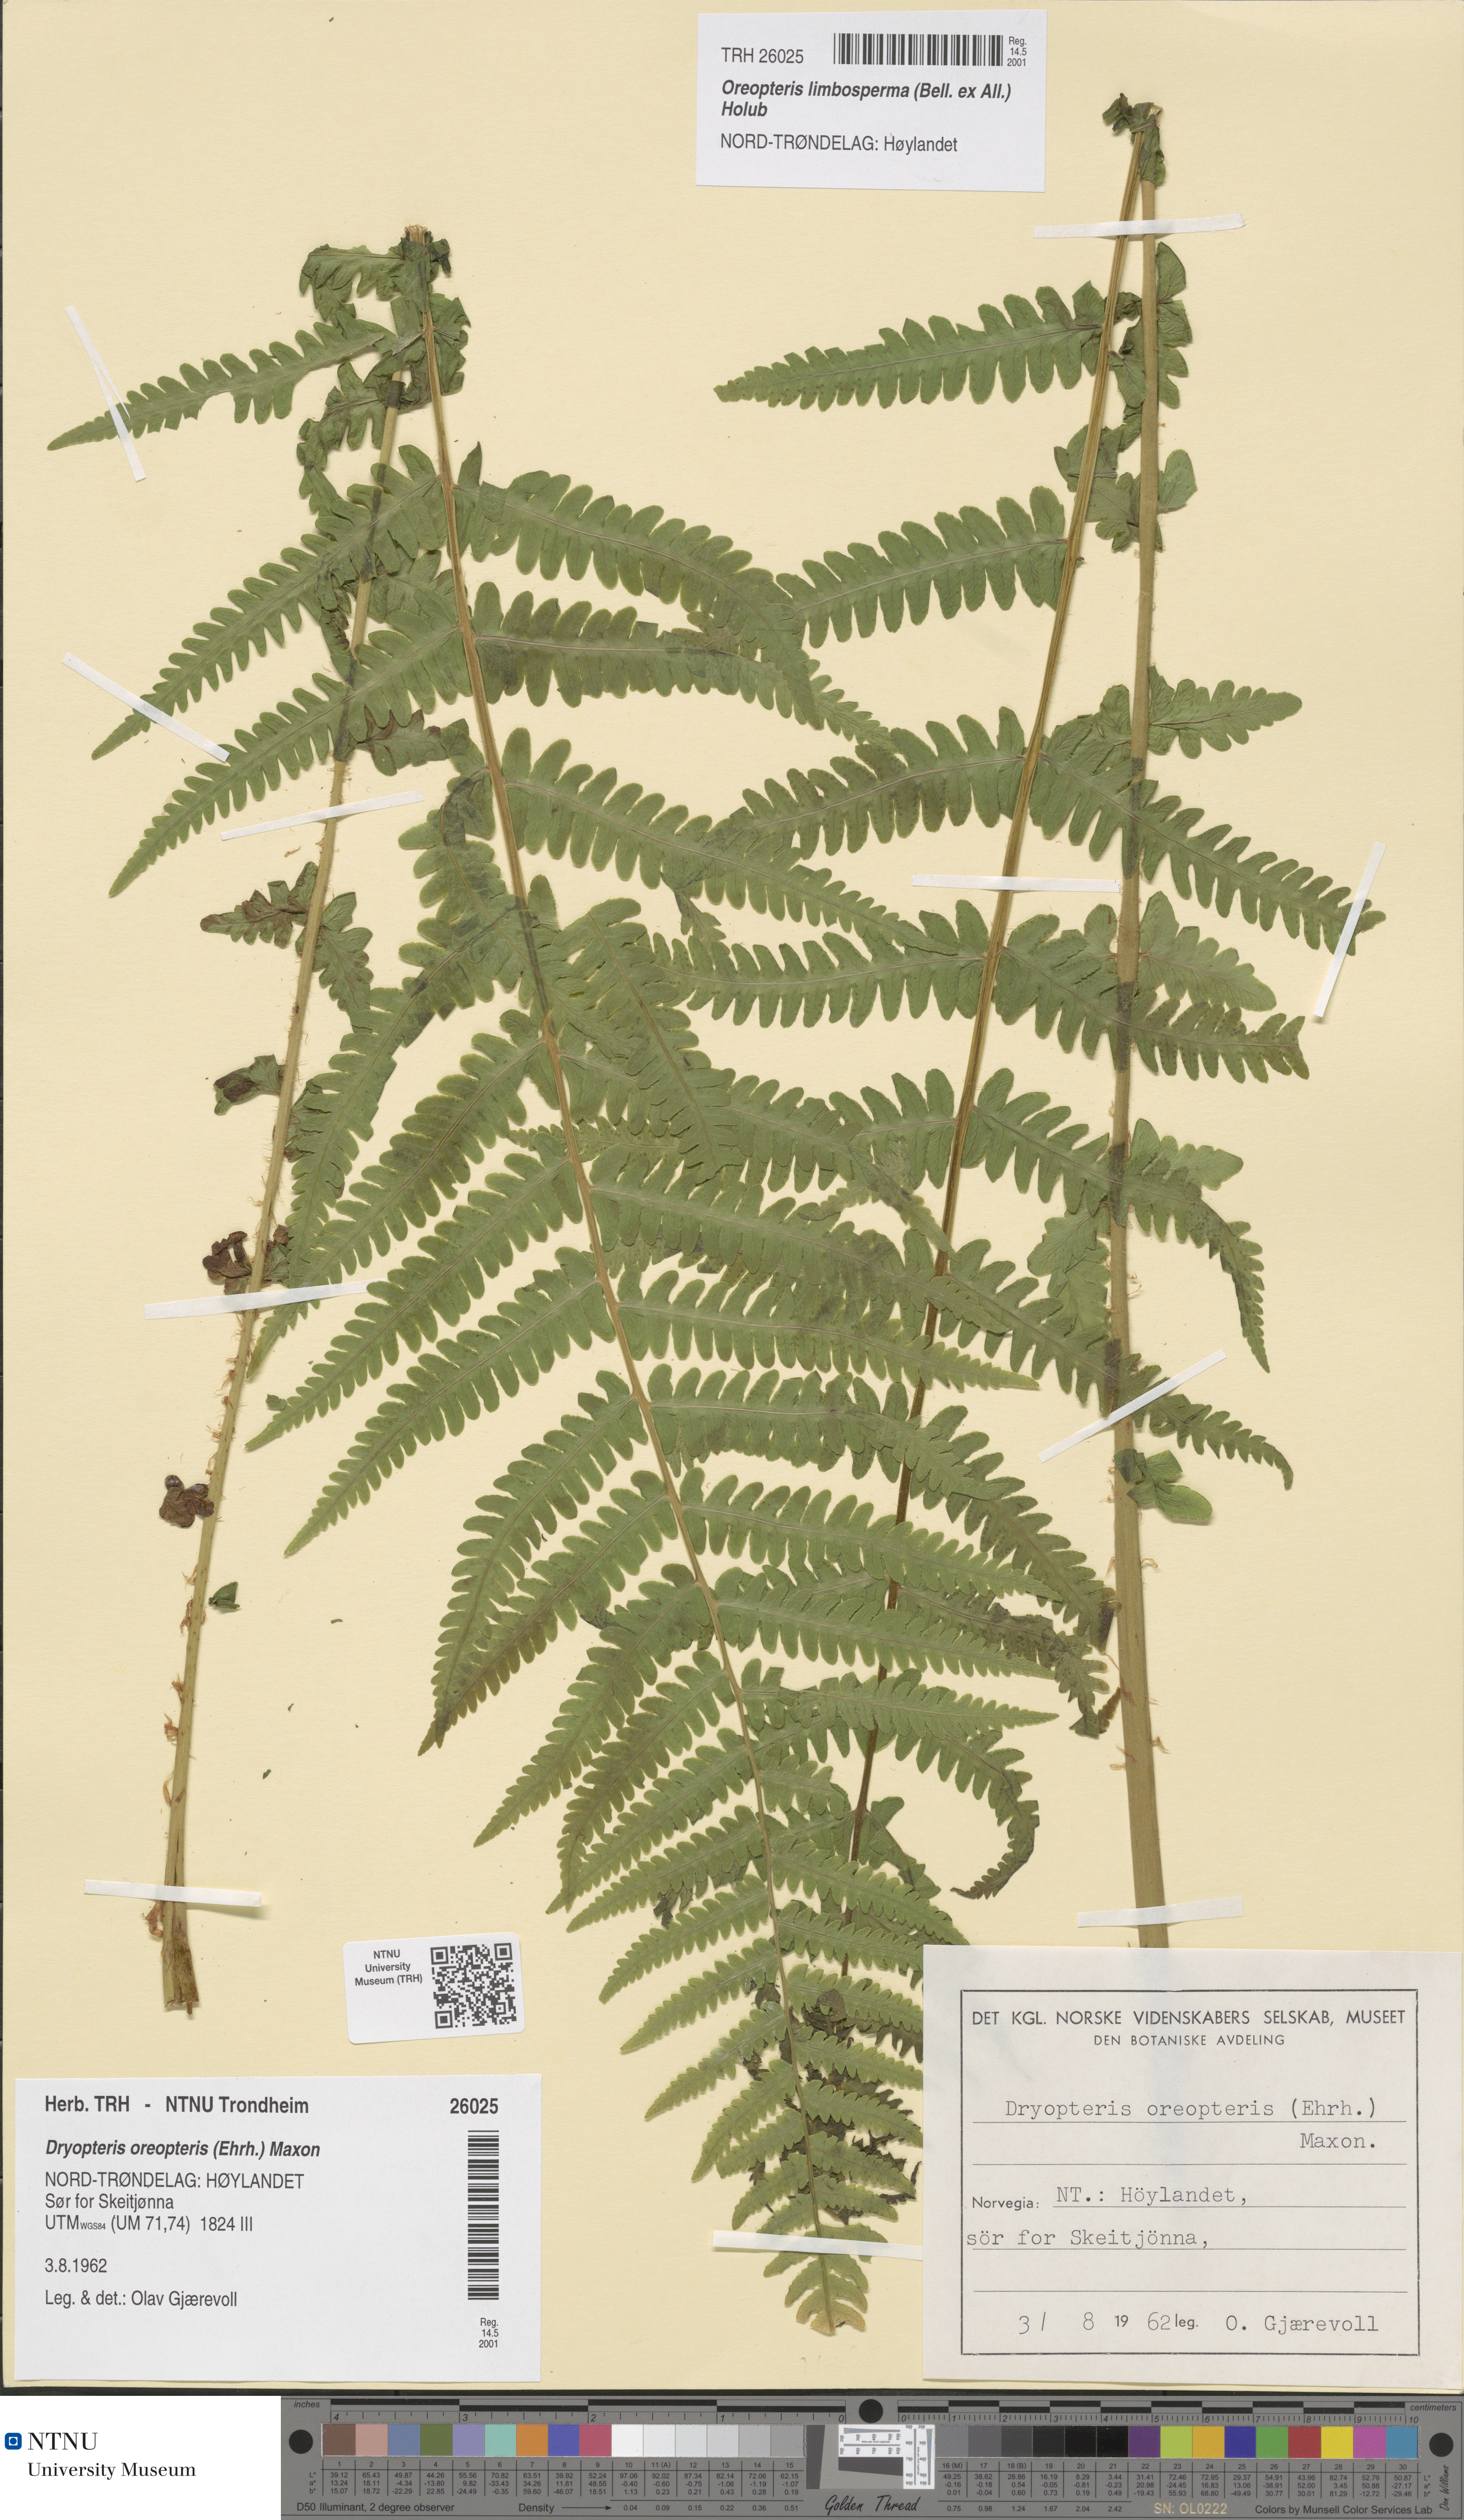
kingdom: Plantae
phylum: Tracheophyta
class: Polypodiopsida
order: Polypodiales
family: Thelypteridaceae
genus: Oreopteris
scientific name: Oreopteris limbosperma
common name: Lemon-scented fern
